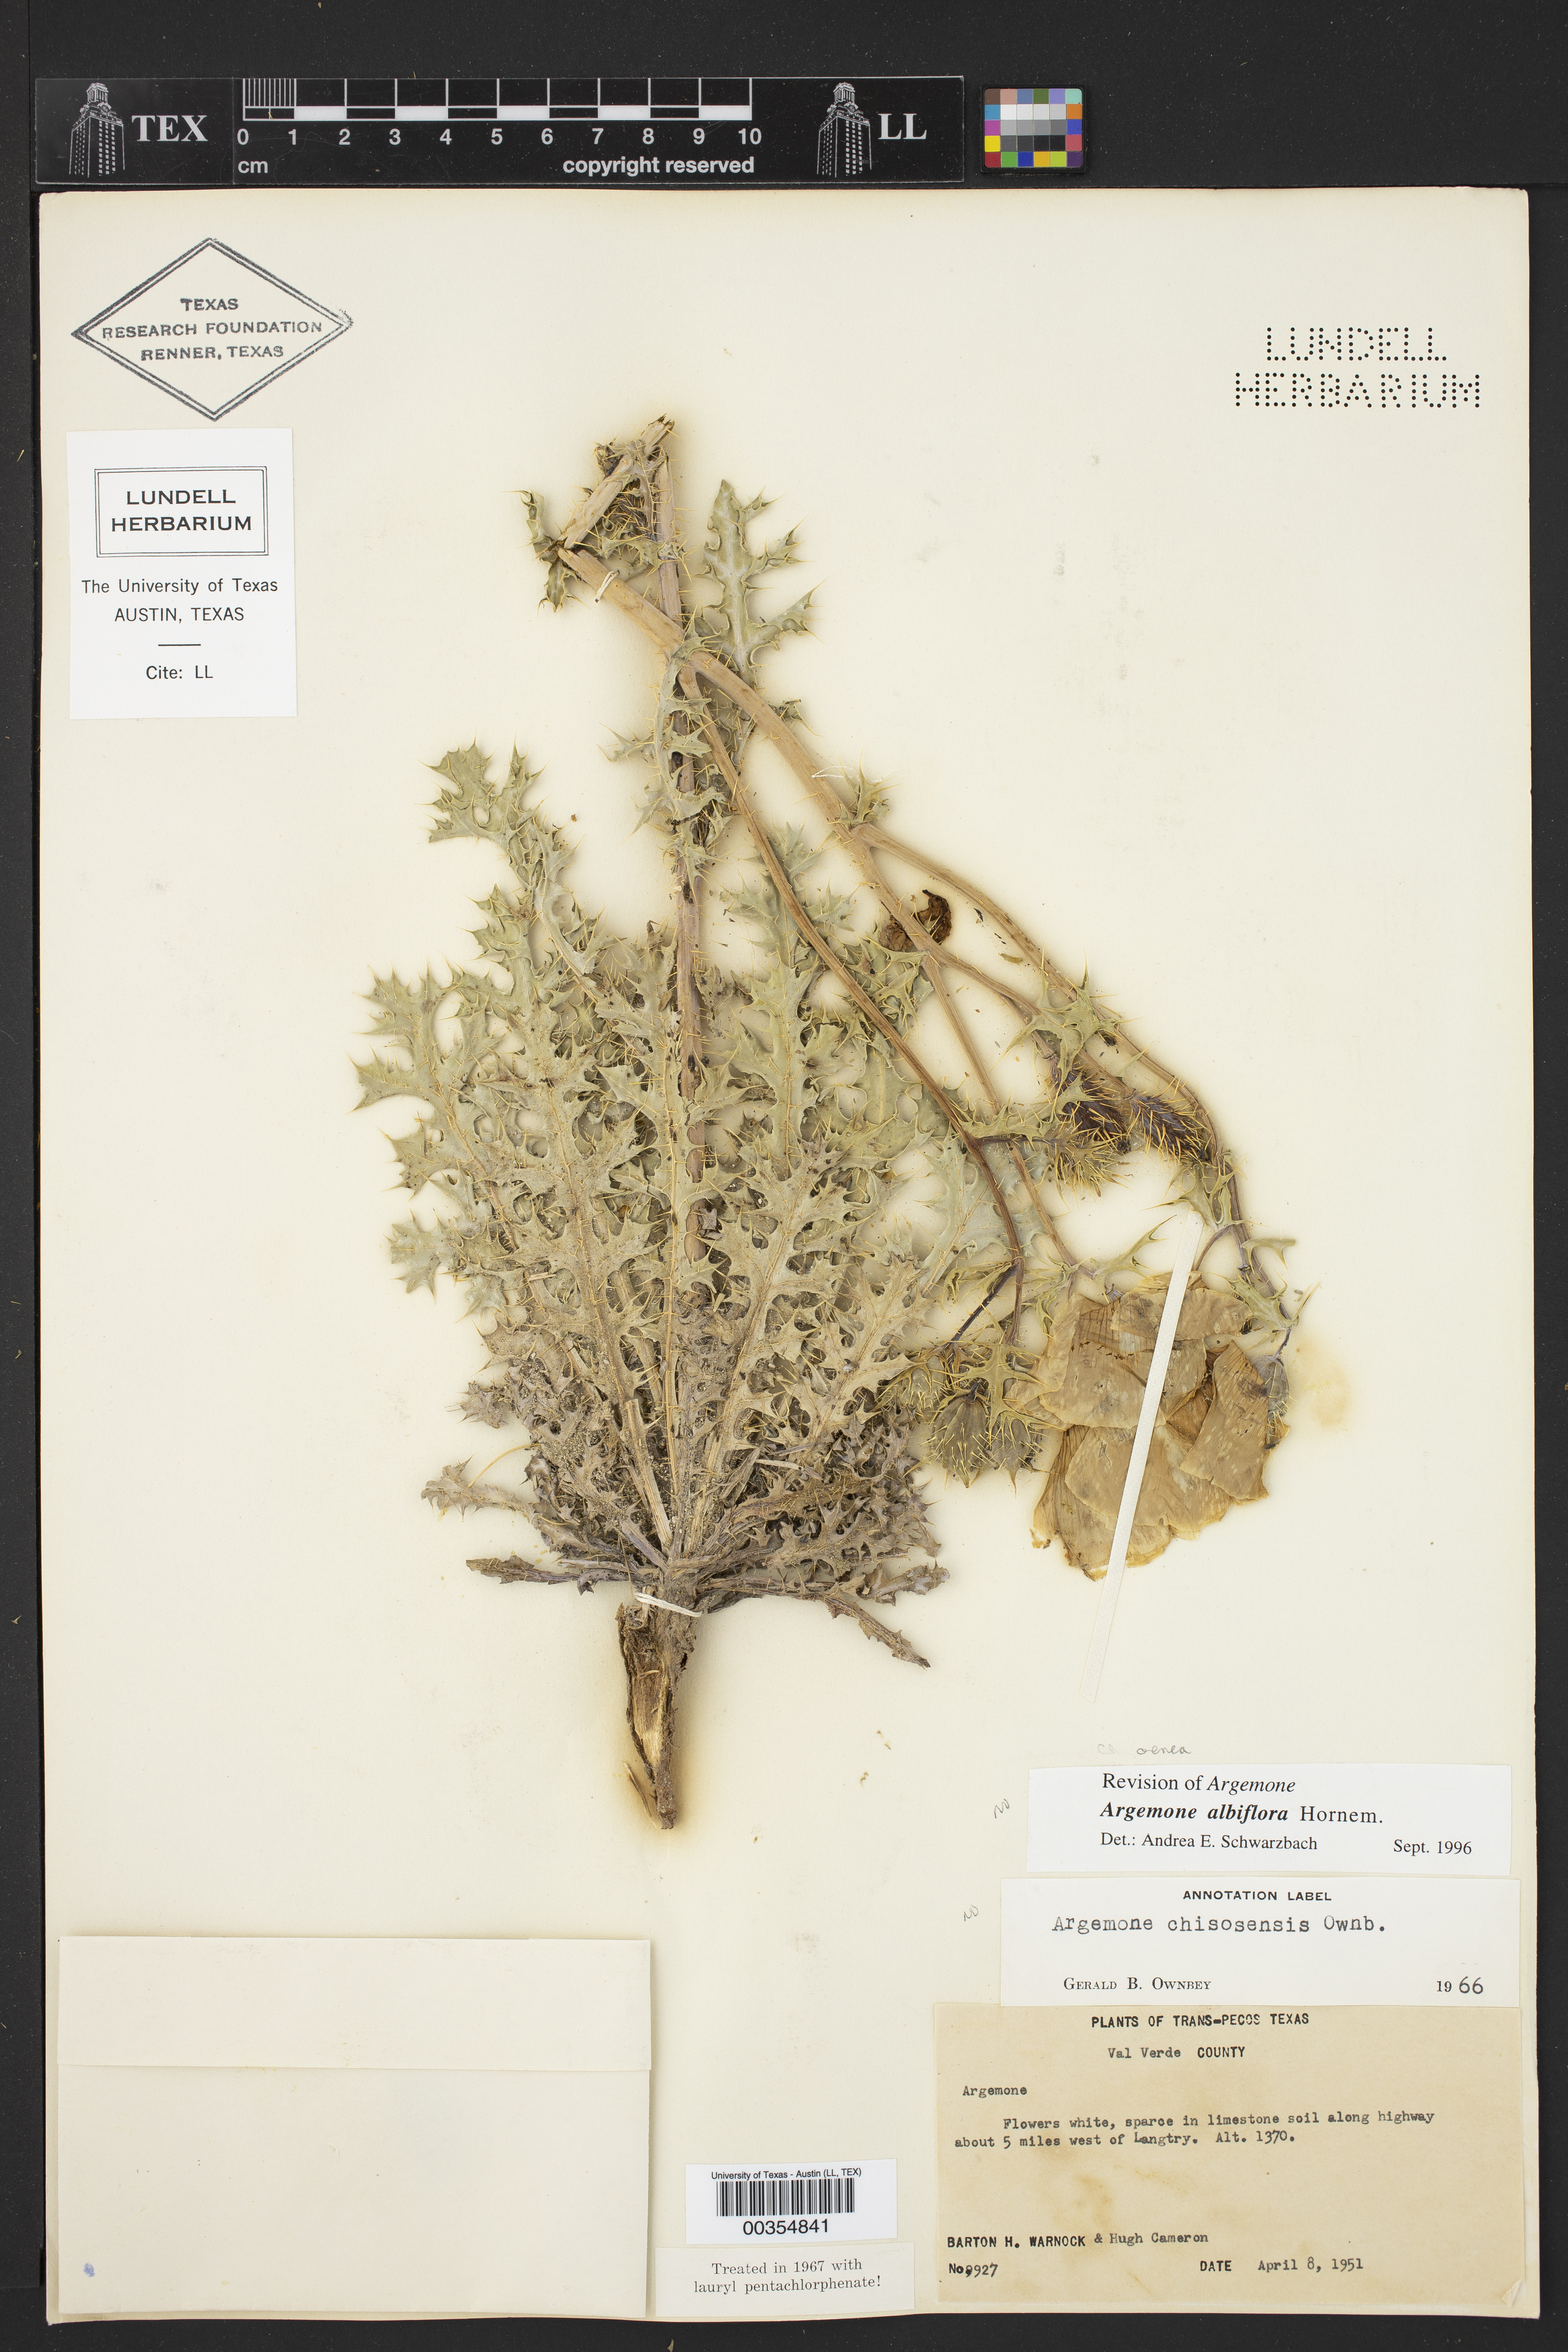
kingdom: Plantae
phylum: Tracheophyta
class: Magnoliopsida
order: Ranunculales
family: Papaveraceae
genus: Argemone
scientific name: Argemone
